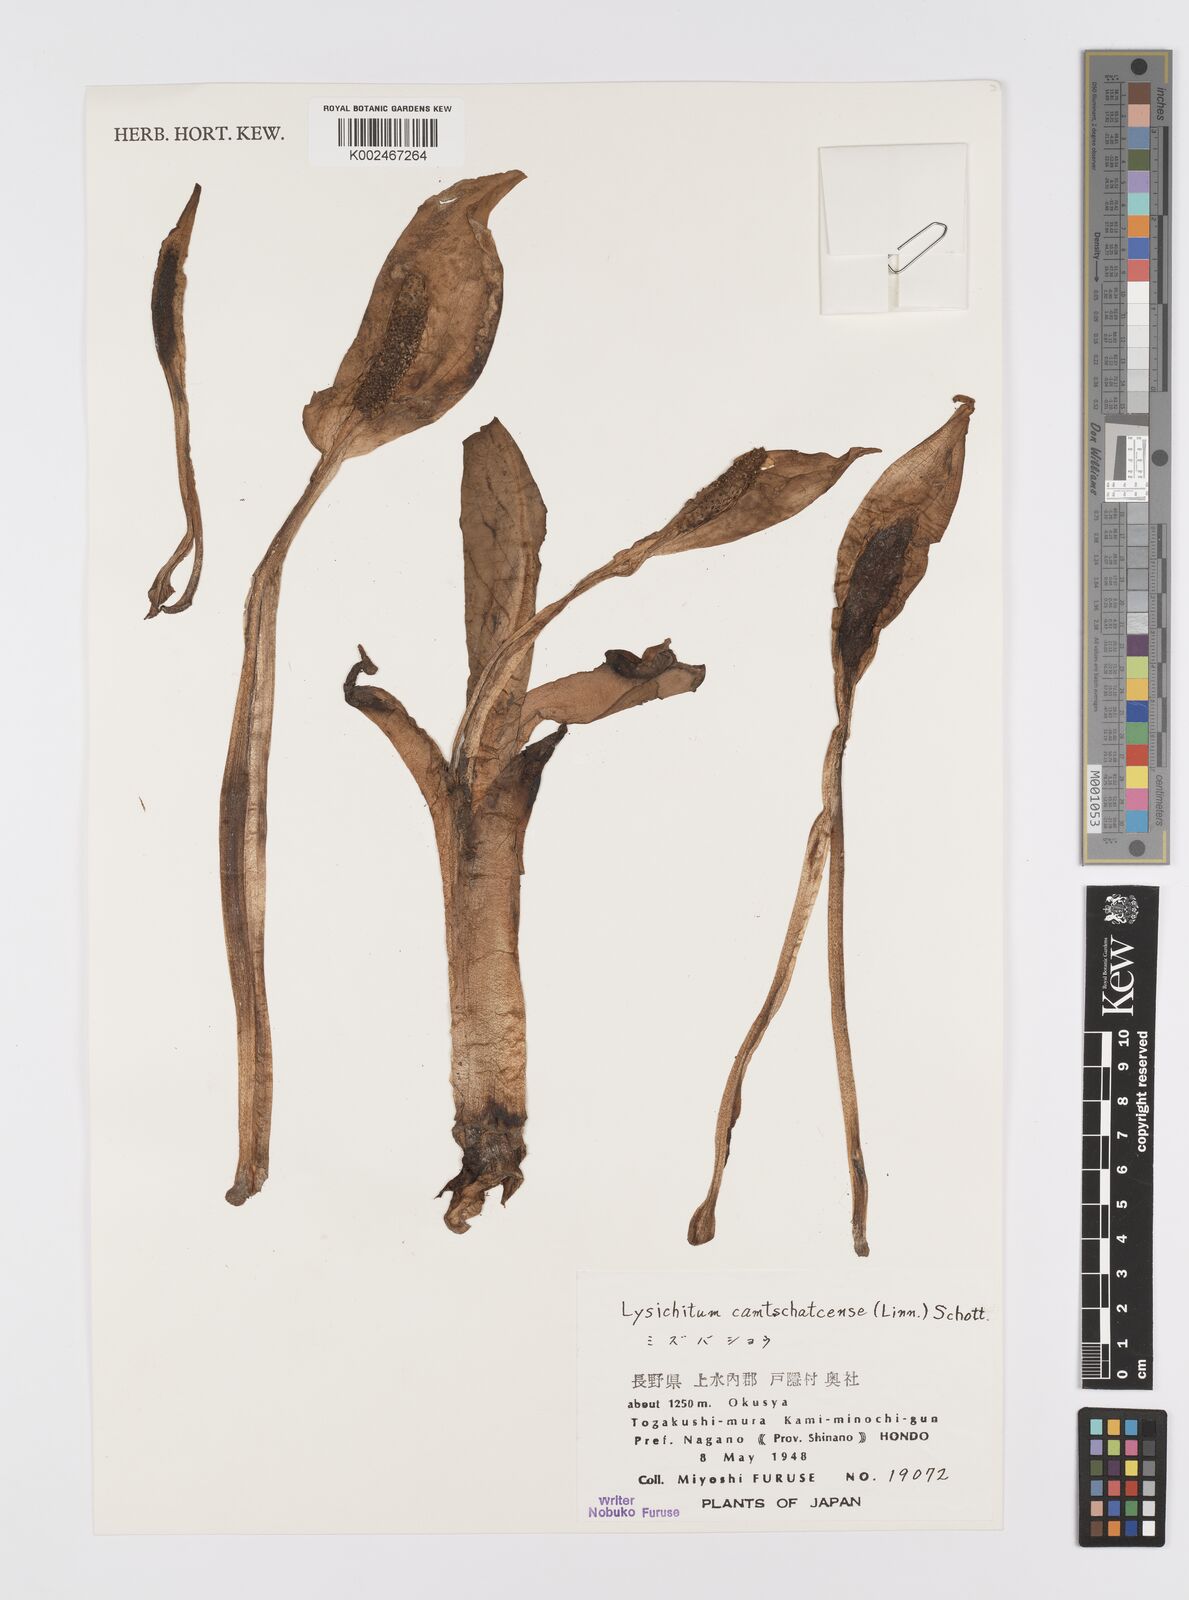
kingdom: Plantae
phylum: Tracheophyta
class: Liliopsida
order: Alismatales
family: Araceae
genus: Lysichiton
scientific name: Lysichiton camtschatcensis
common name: Asian skunk-cabbage
